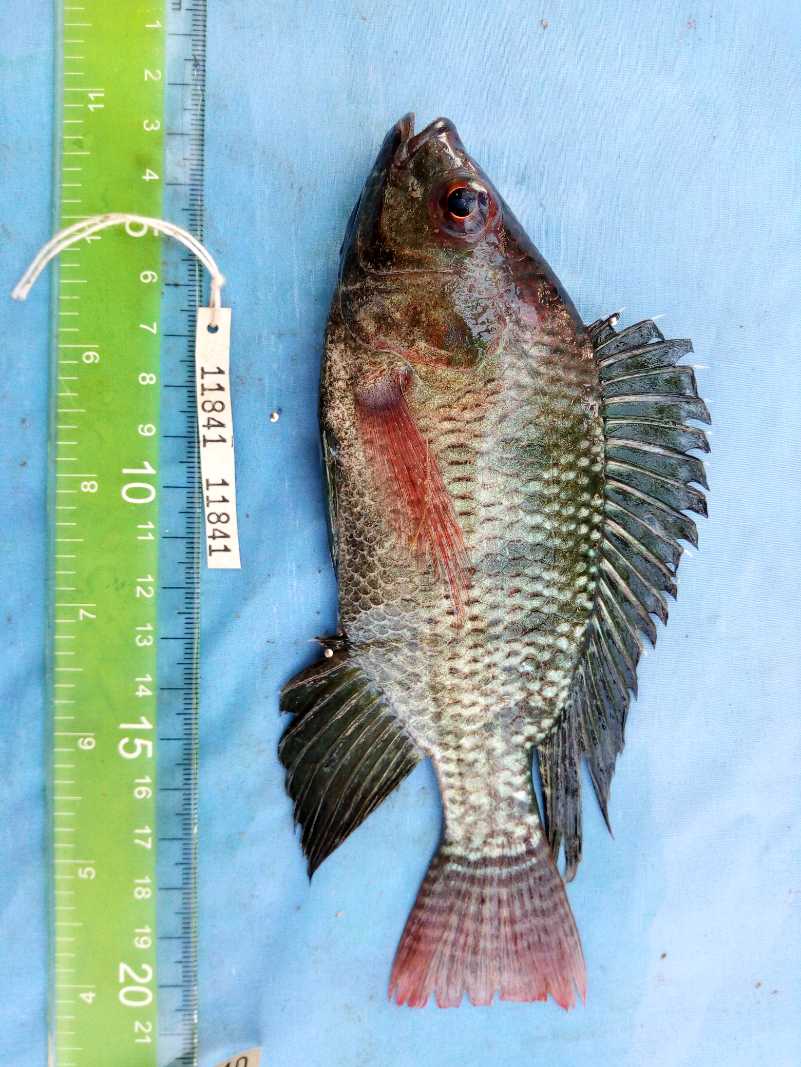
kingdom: Animalia
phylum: Chordata
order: Perciformes
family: Cichlidae
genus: Oreochromis
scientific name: Oreochromis niloticus
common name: Nile tilapia
